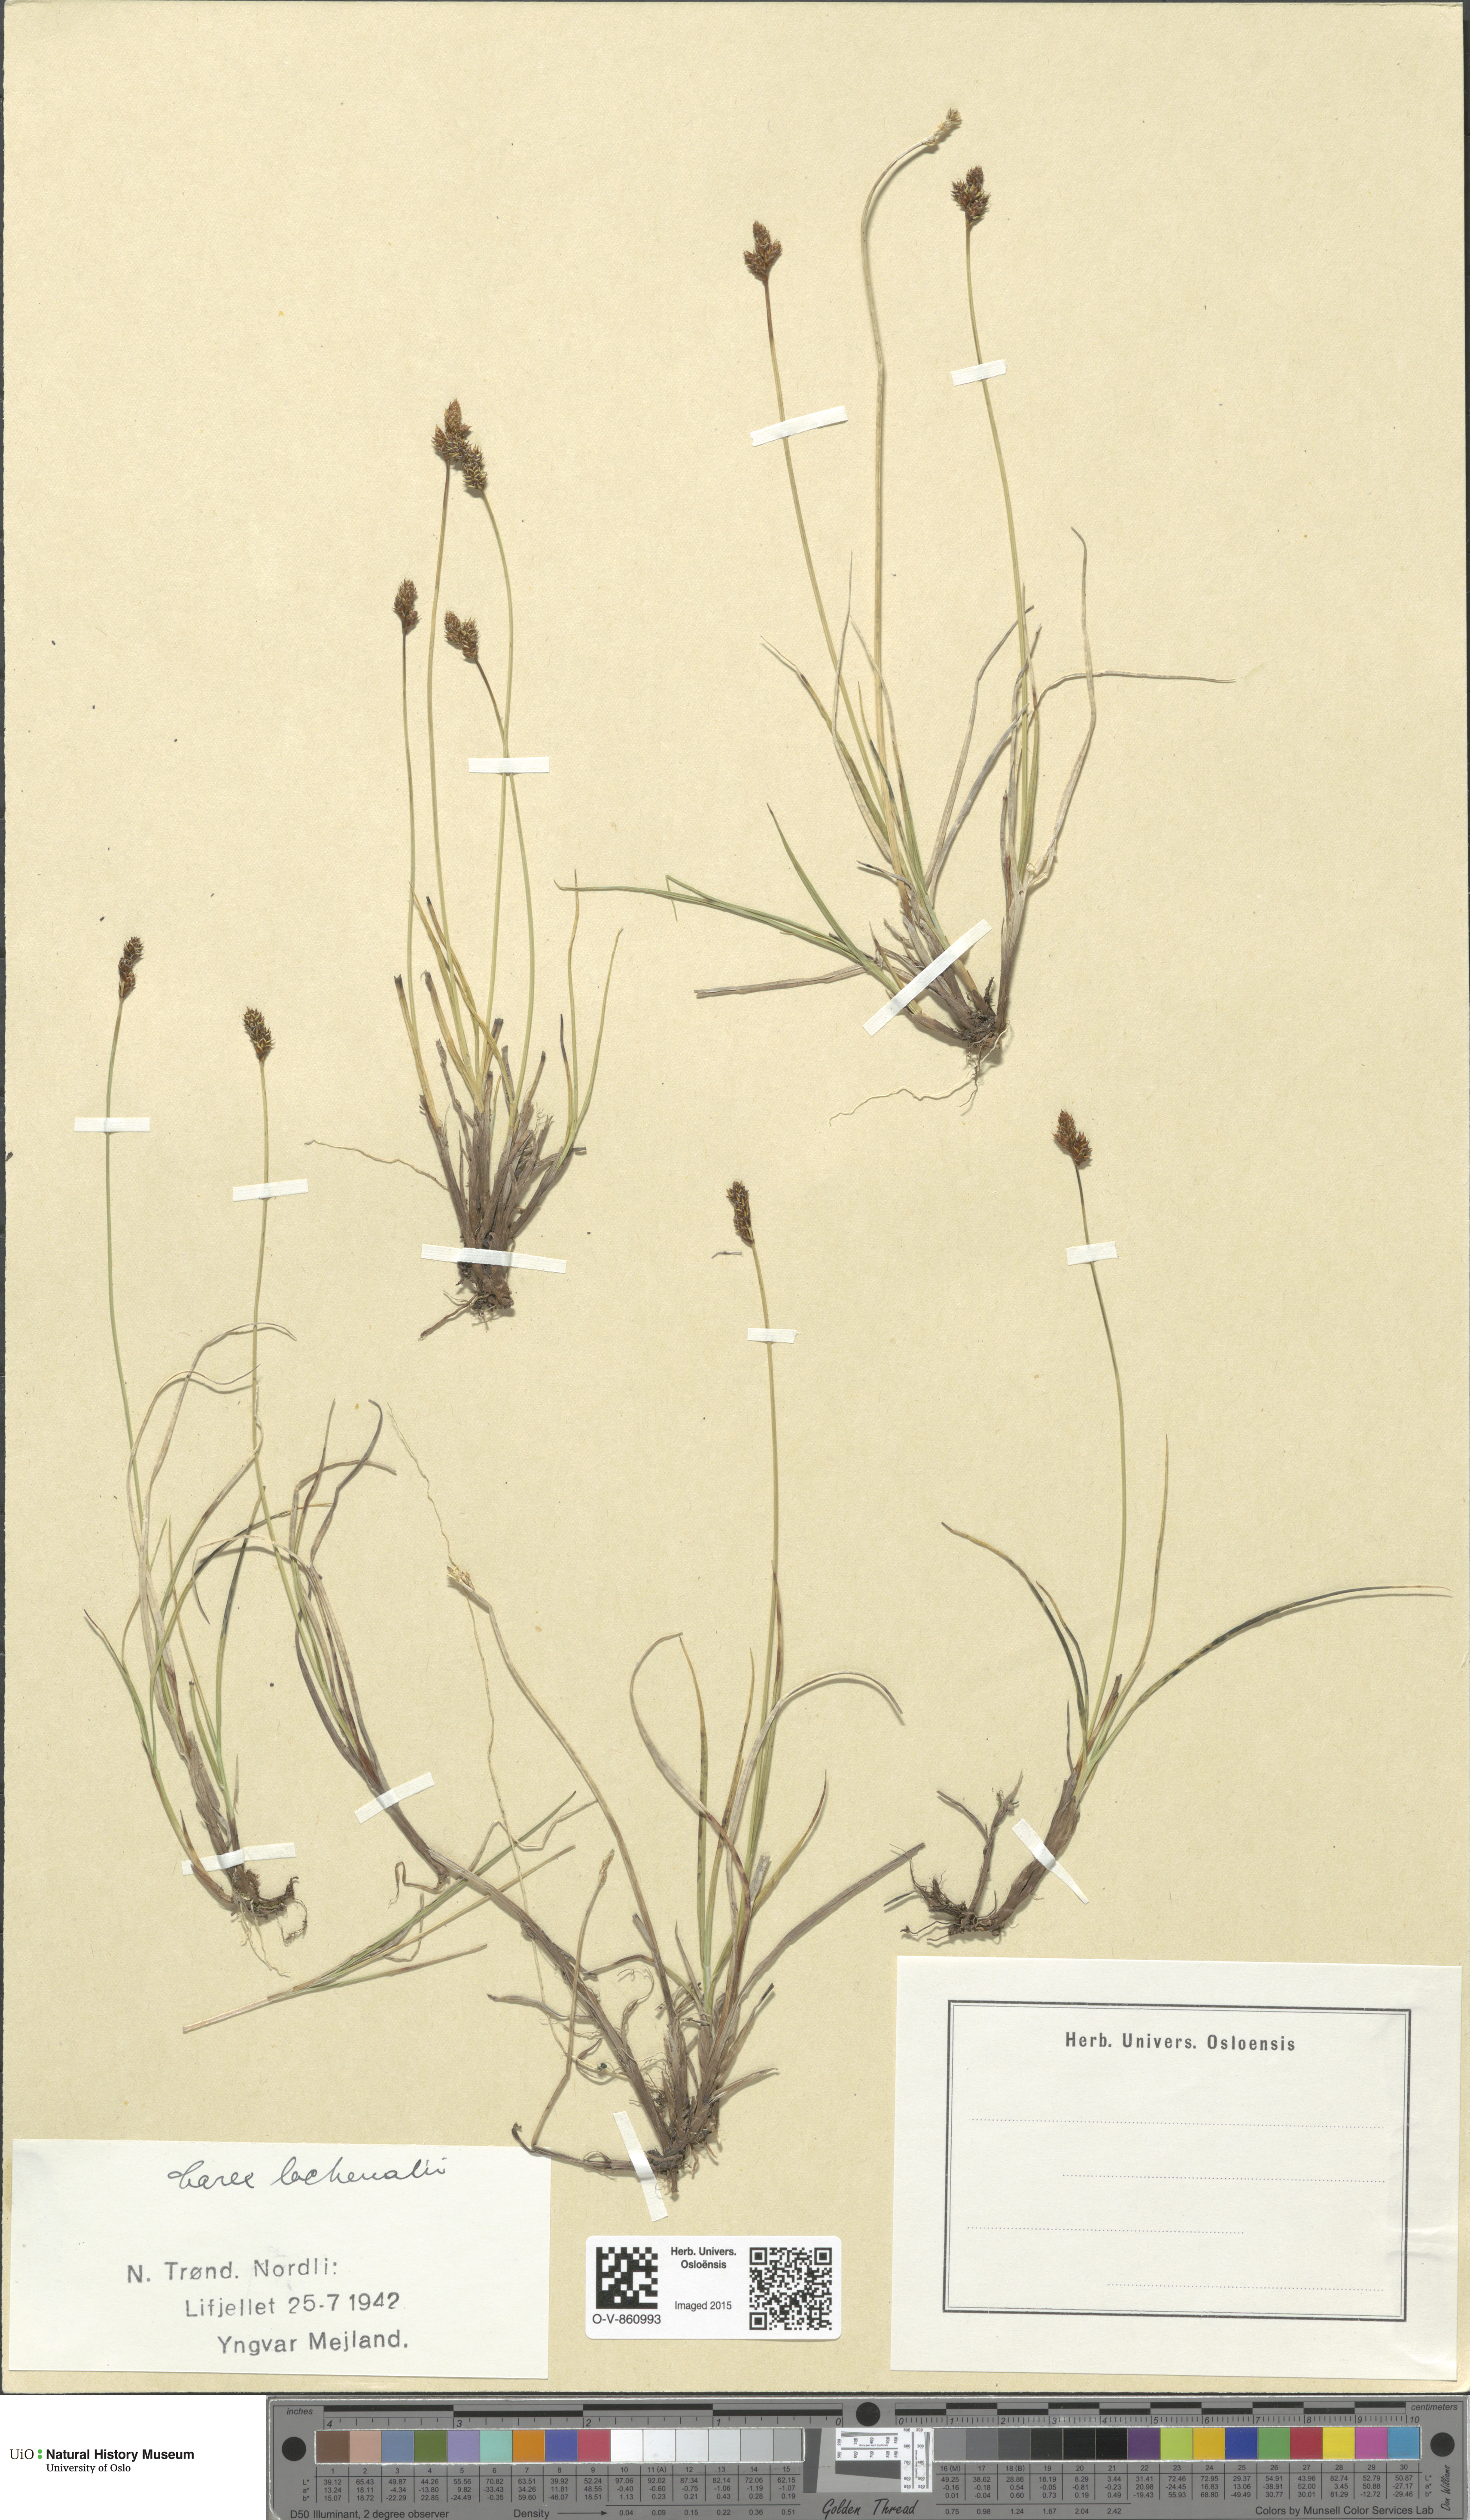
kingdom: Plantae
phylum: Tracheophyta
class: Liliopsida
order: Poales
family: Cyperaceae
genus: Carex
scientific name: Carex lachenalii
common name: Hare's-foot sedge
